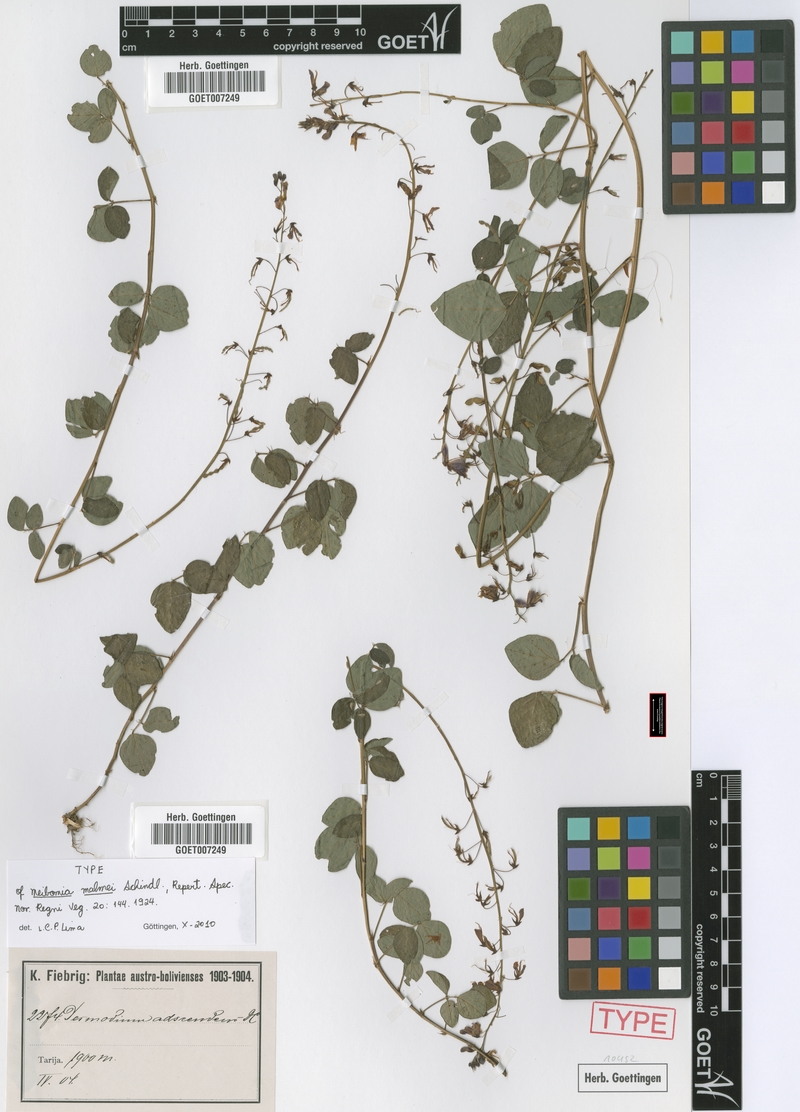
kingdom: Plantae
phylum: Tracheophyta
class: Magnoliopsida
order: Fabales
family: Fabaceae
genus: Desmodium
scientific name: Desmodium subsericeum
